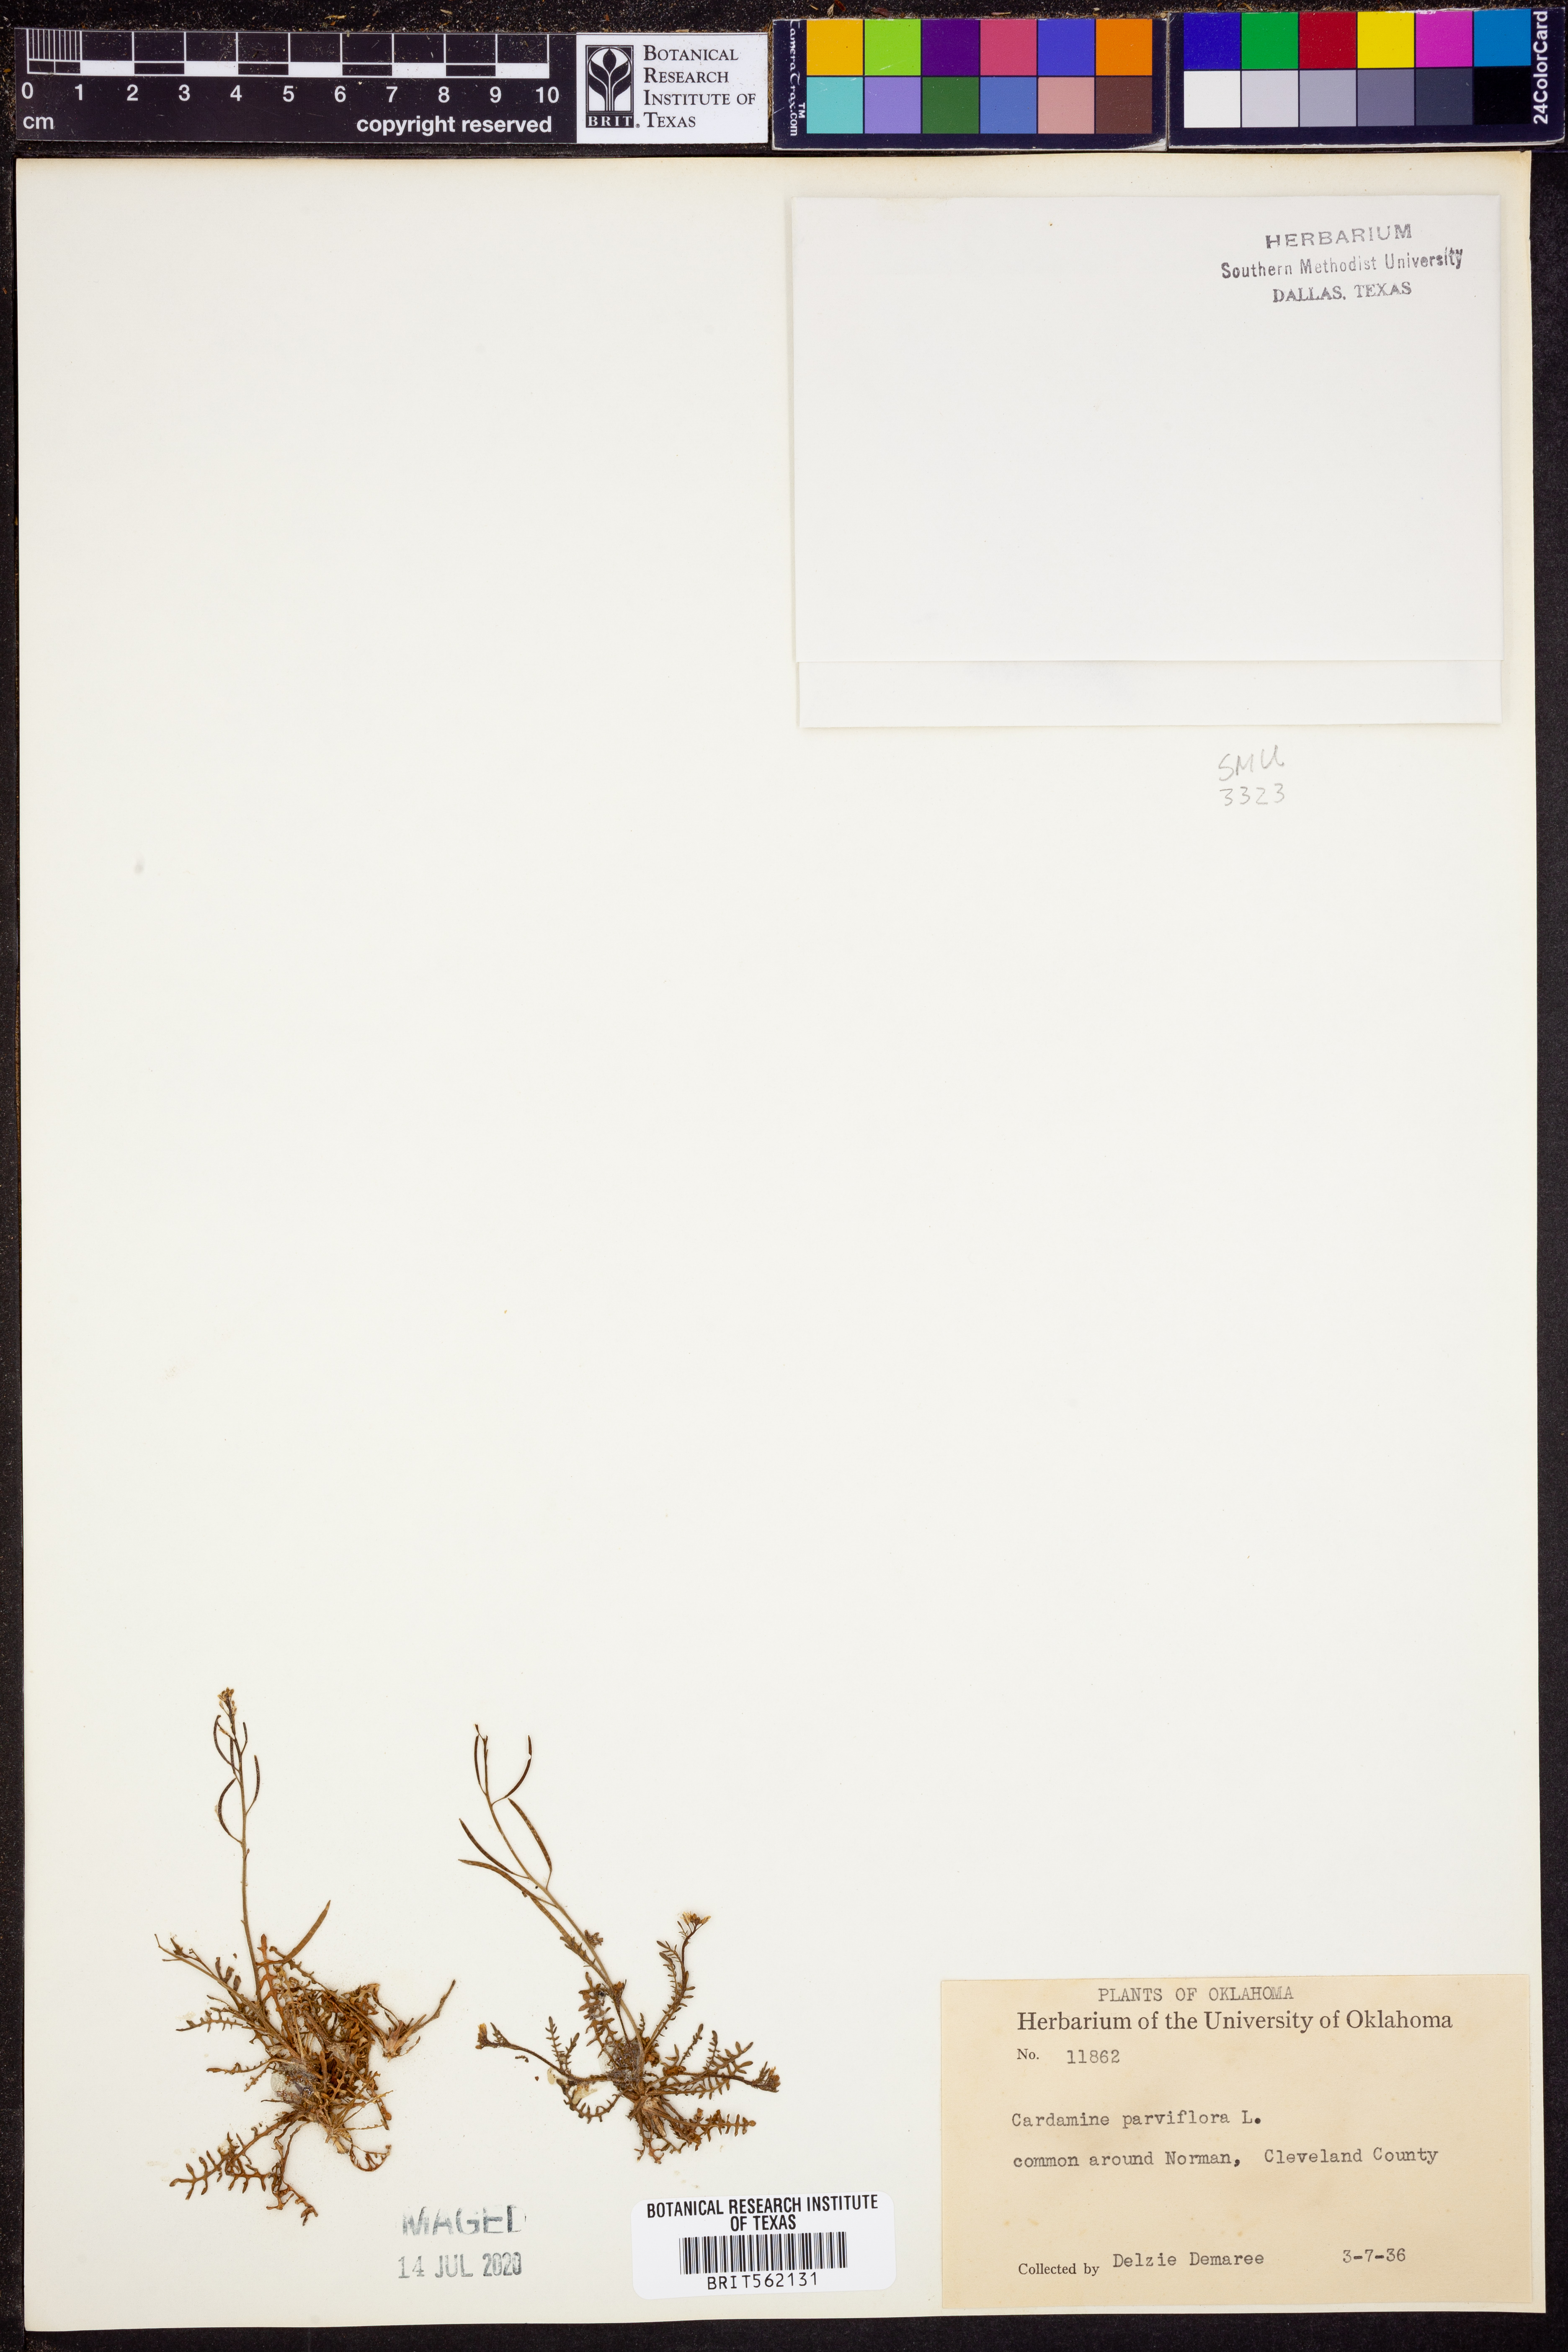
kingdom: Plantae
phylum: Tracheophyta
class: Magnoliopsida
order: Brassicales
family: Brassicaceae
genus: Cardamine
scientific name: Cardamine parviflora
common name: Sand bittercress
